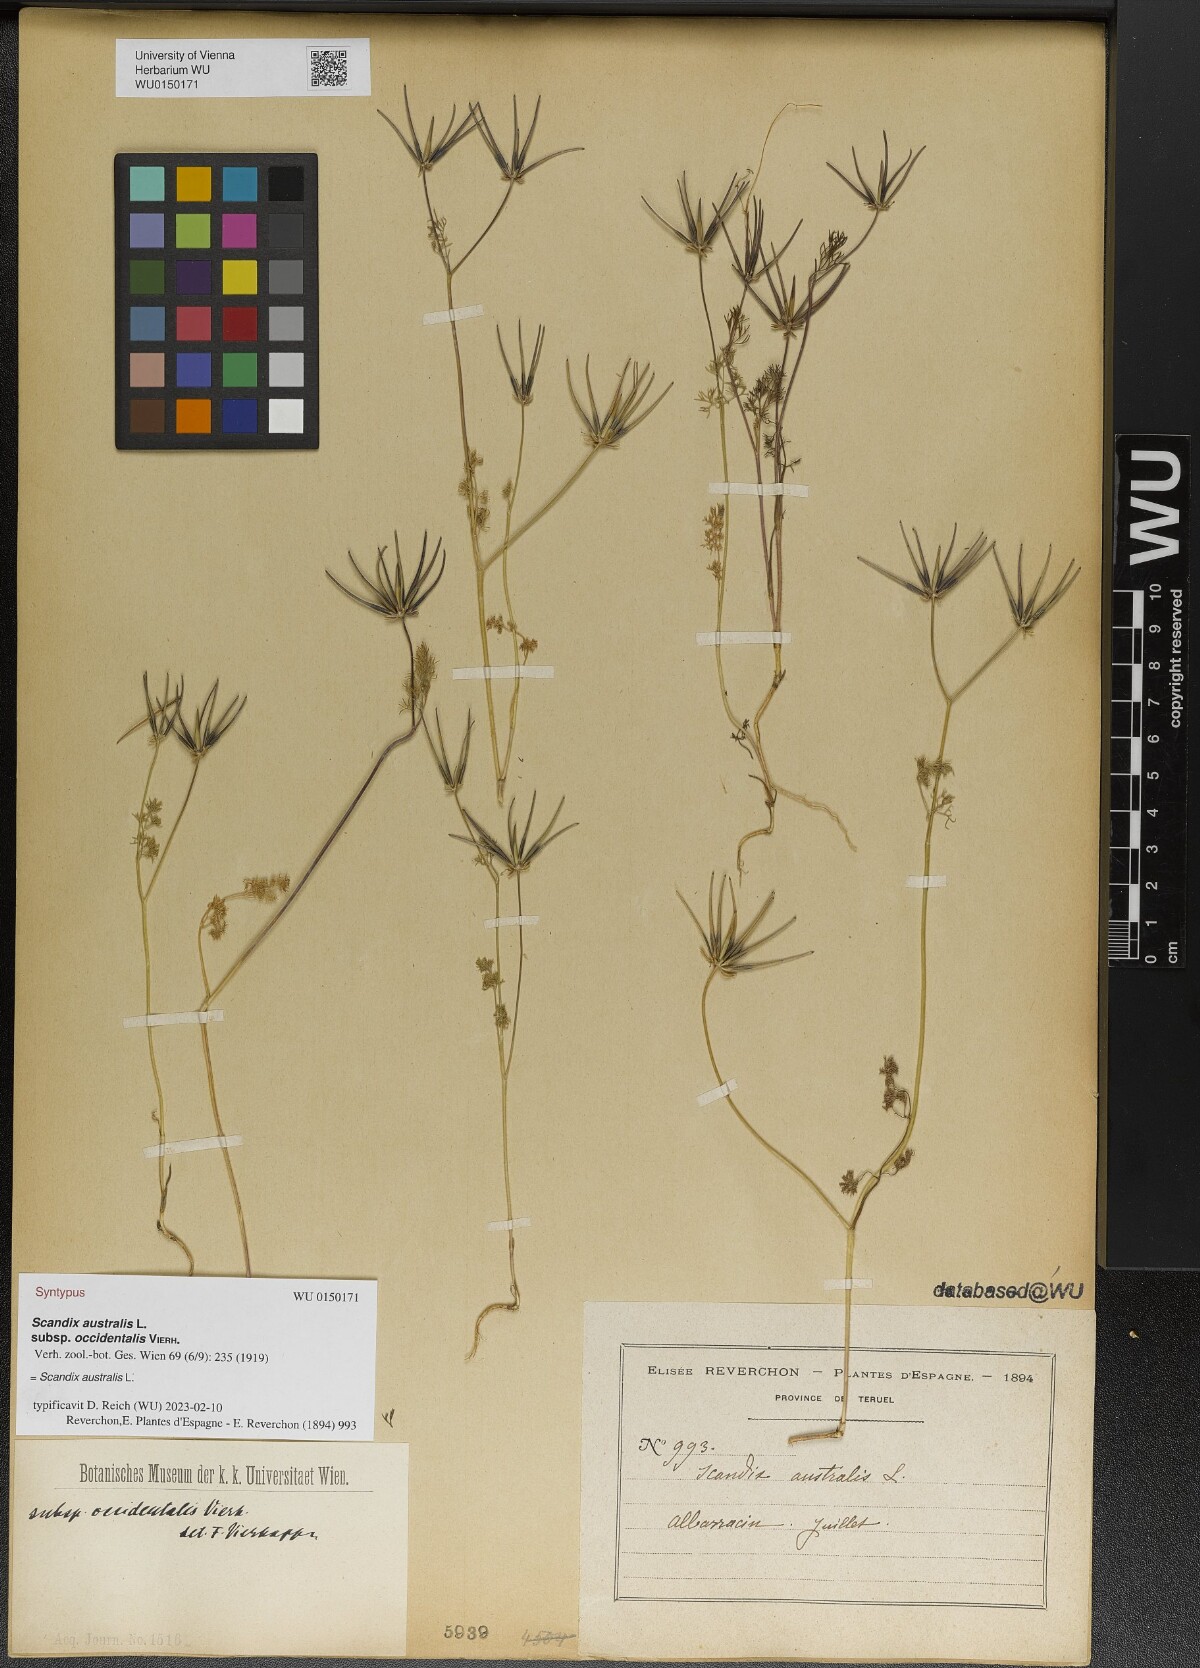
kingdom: Plantae
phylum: Tracheophyta
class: Magnoliopsida
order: Apiales
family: Apiaceae
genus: Scandix
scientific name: Scandix australis
